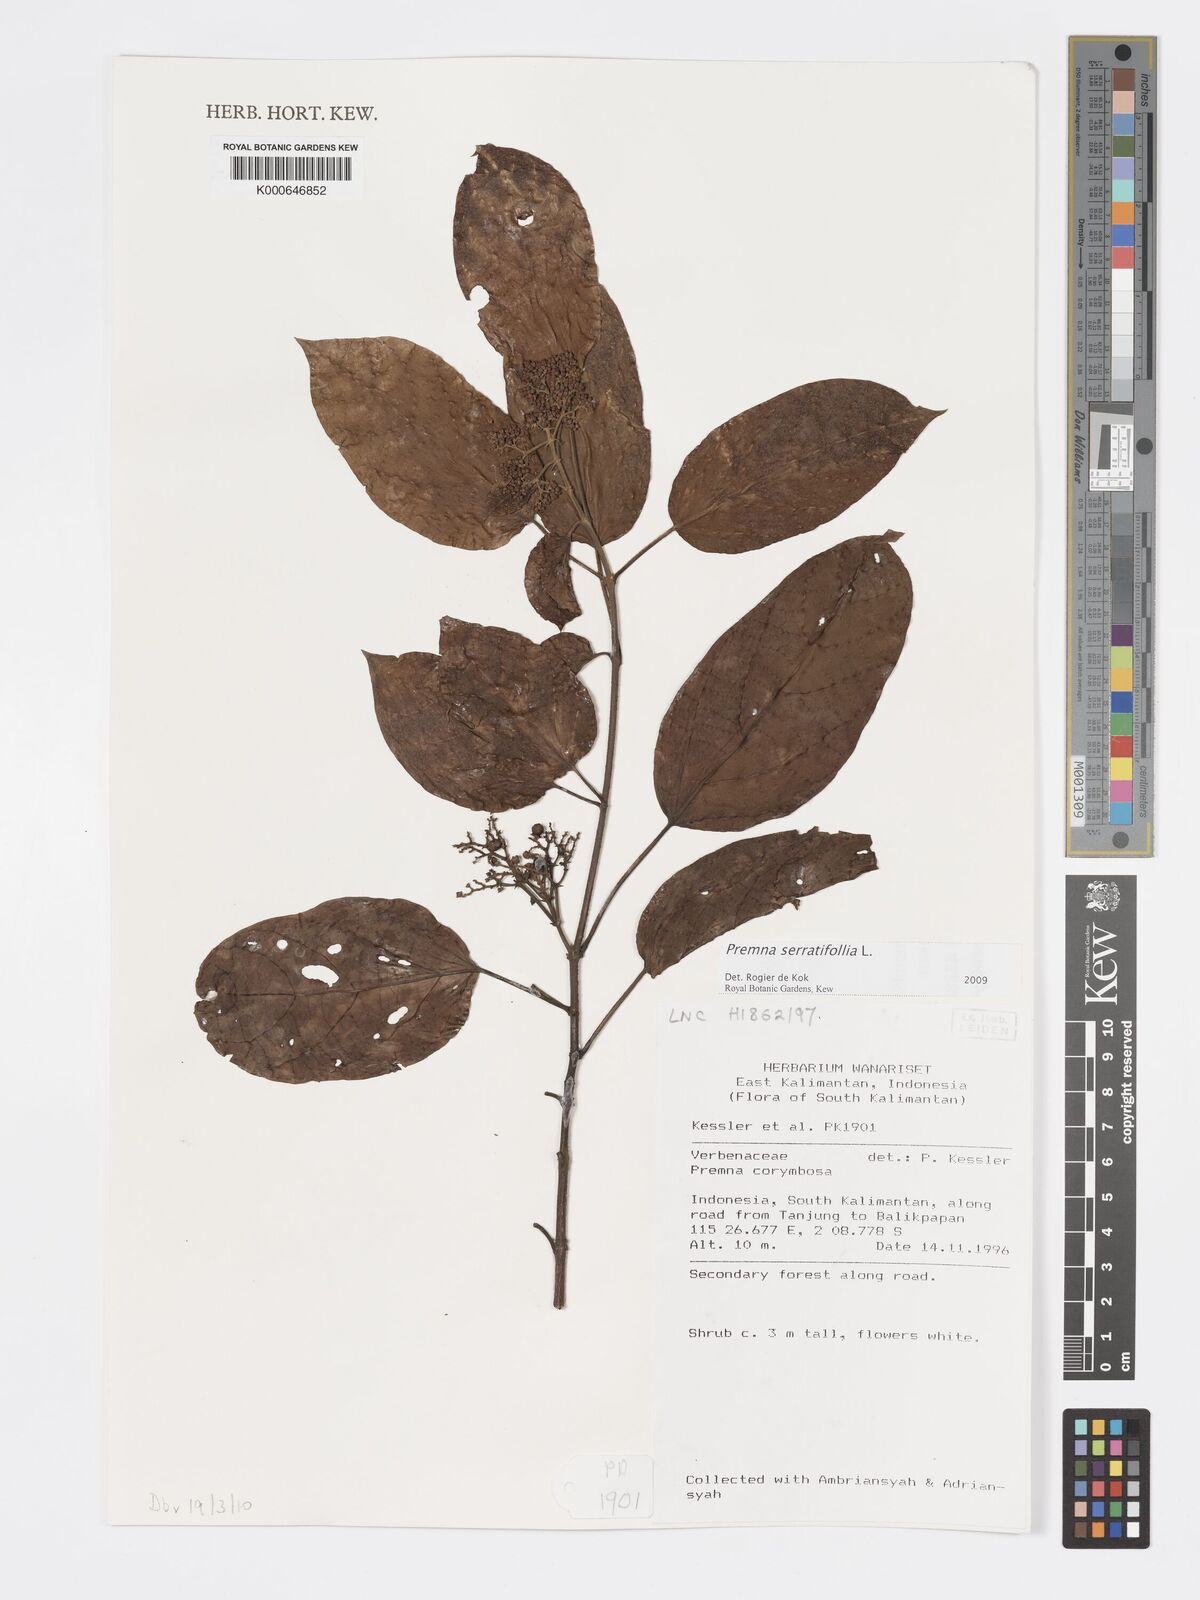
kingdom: Plantae
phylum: Tracheophyta
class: Magnoliopsida
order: Lamiales
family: Lamiaceae
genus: Premna
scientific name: Premna serratifolia
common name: Bastard guelder
